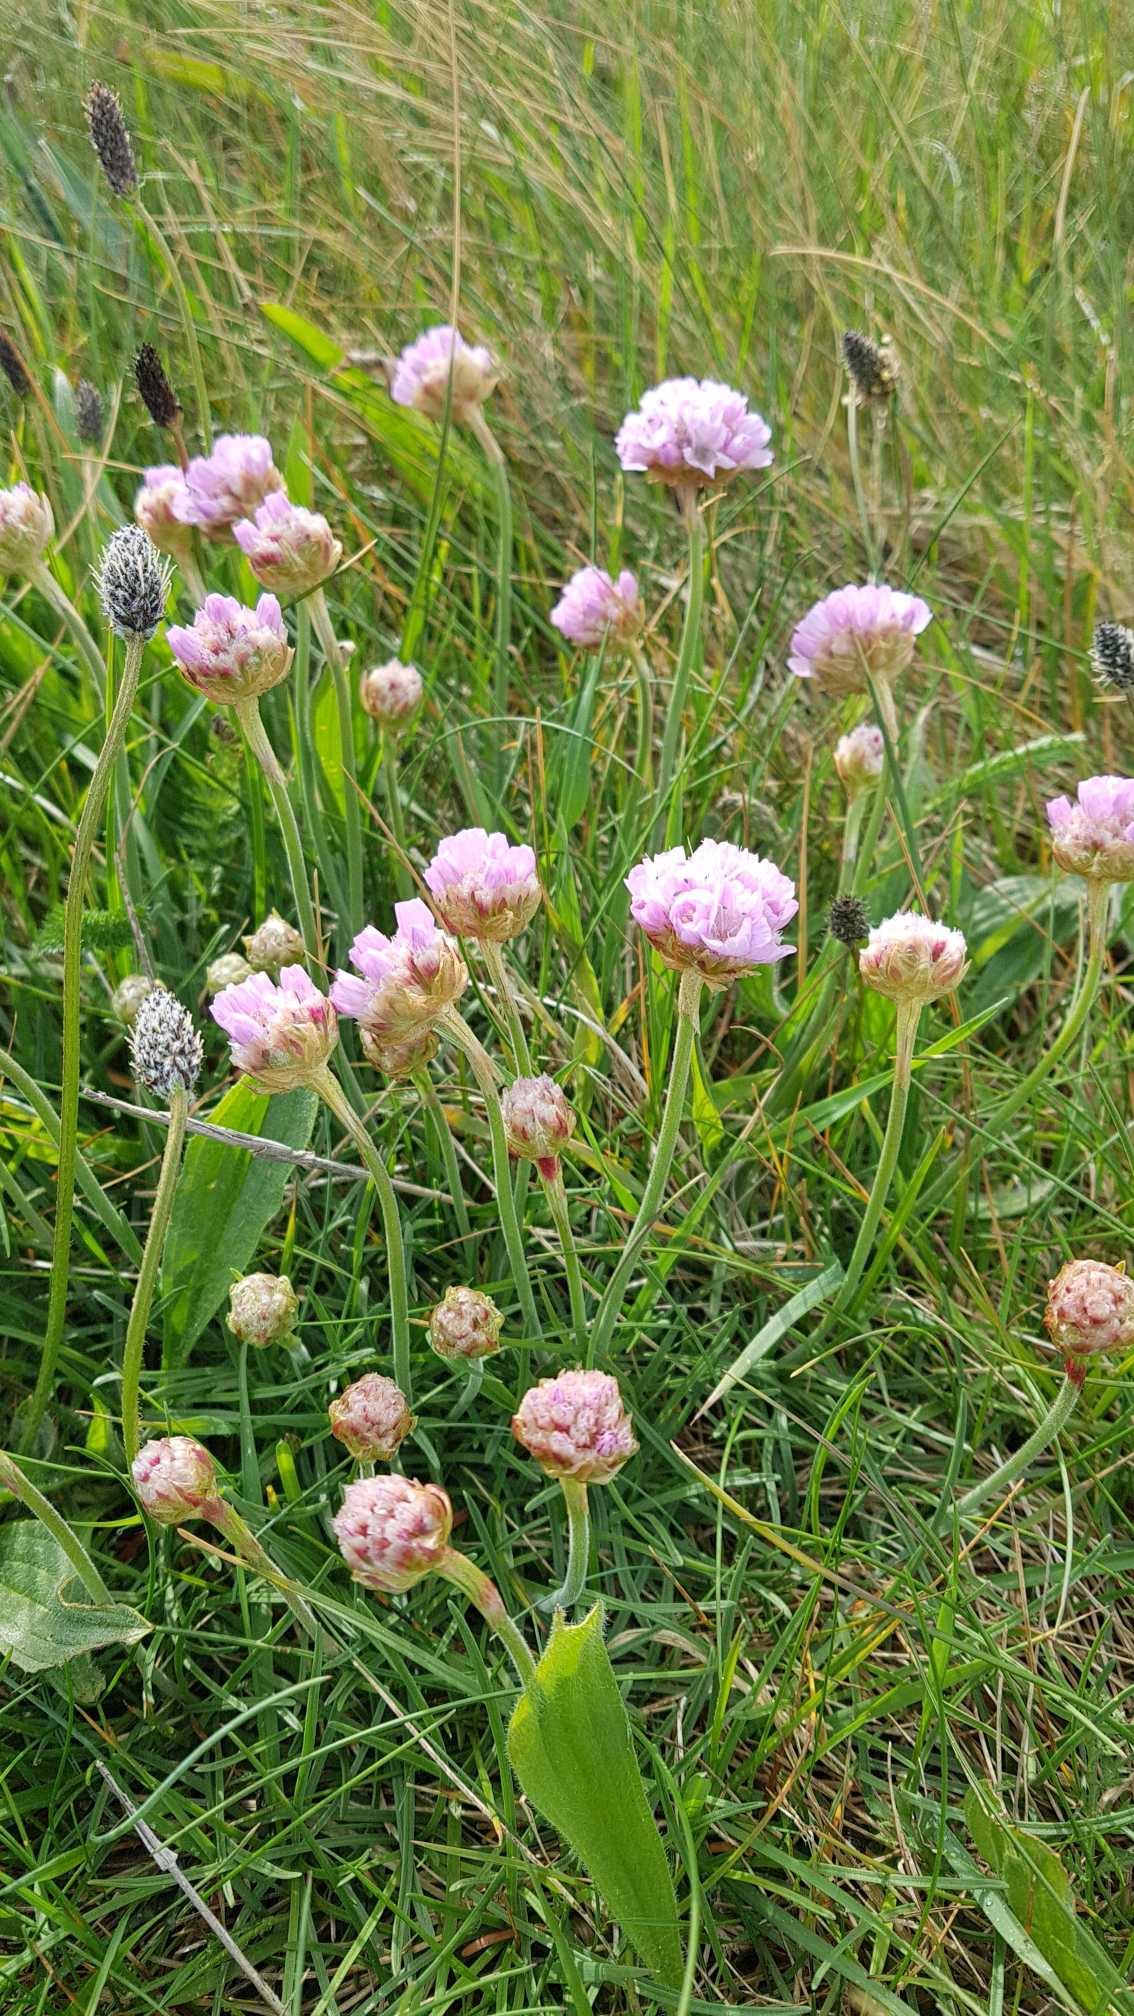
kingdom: Plantae
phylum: Tracheophyta
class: Magnoliopsida
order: Caryophyllales
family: Plumbaginaceae
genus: Armeria
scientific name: Armeria maritima
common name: Engelskgræs
